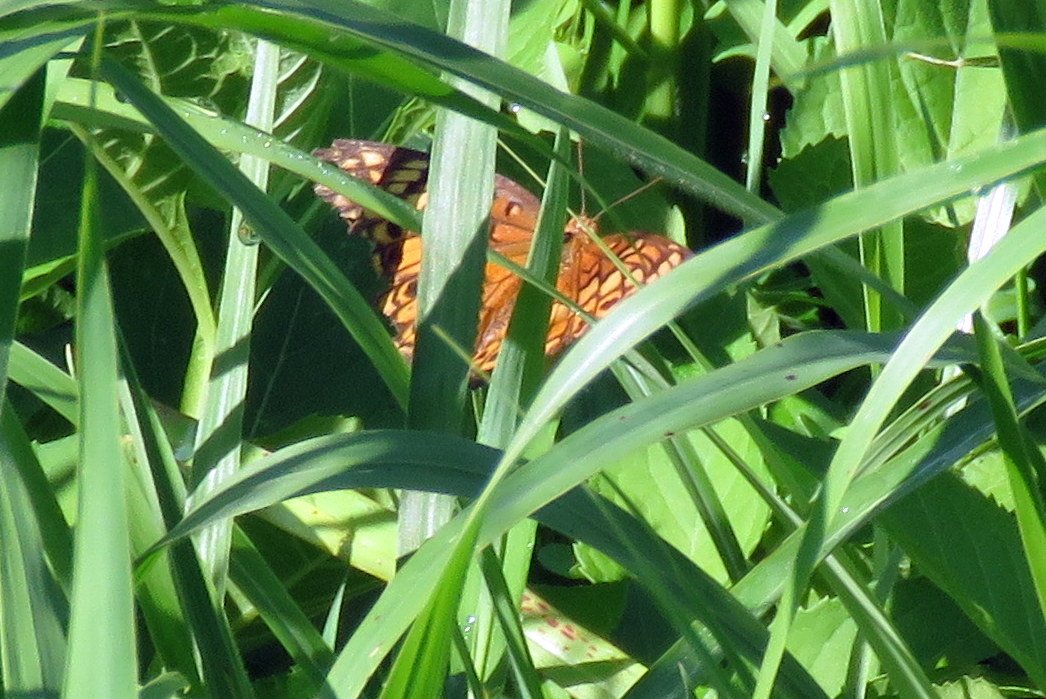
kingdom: Animalia
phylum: Arthropoda
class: Insecta
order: Lepidoptera
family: Nymphalidae
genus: Euptoieta
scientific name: Euptoieta claudia
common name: Variegated Fritillary
